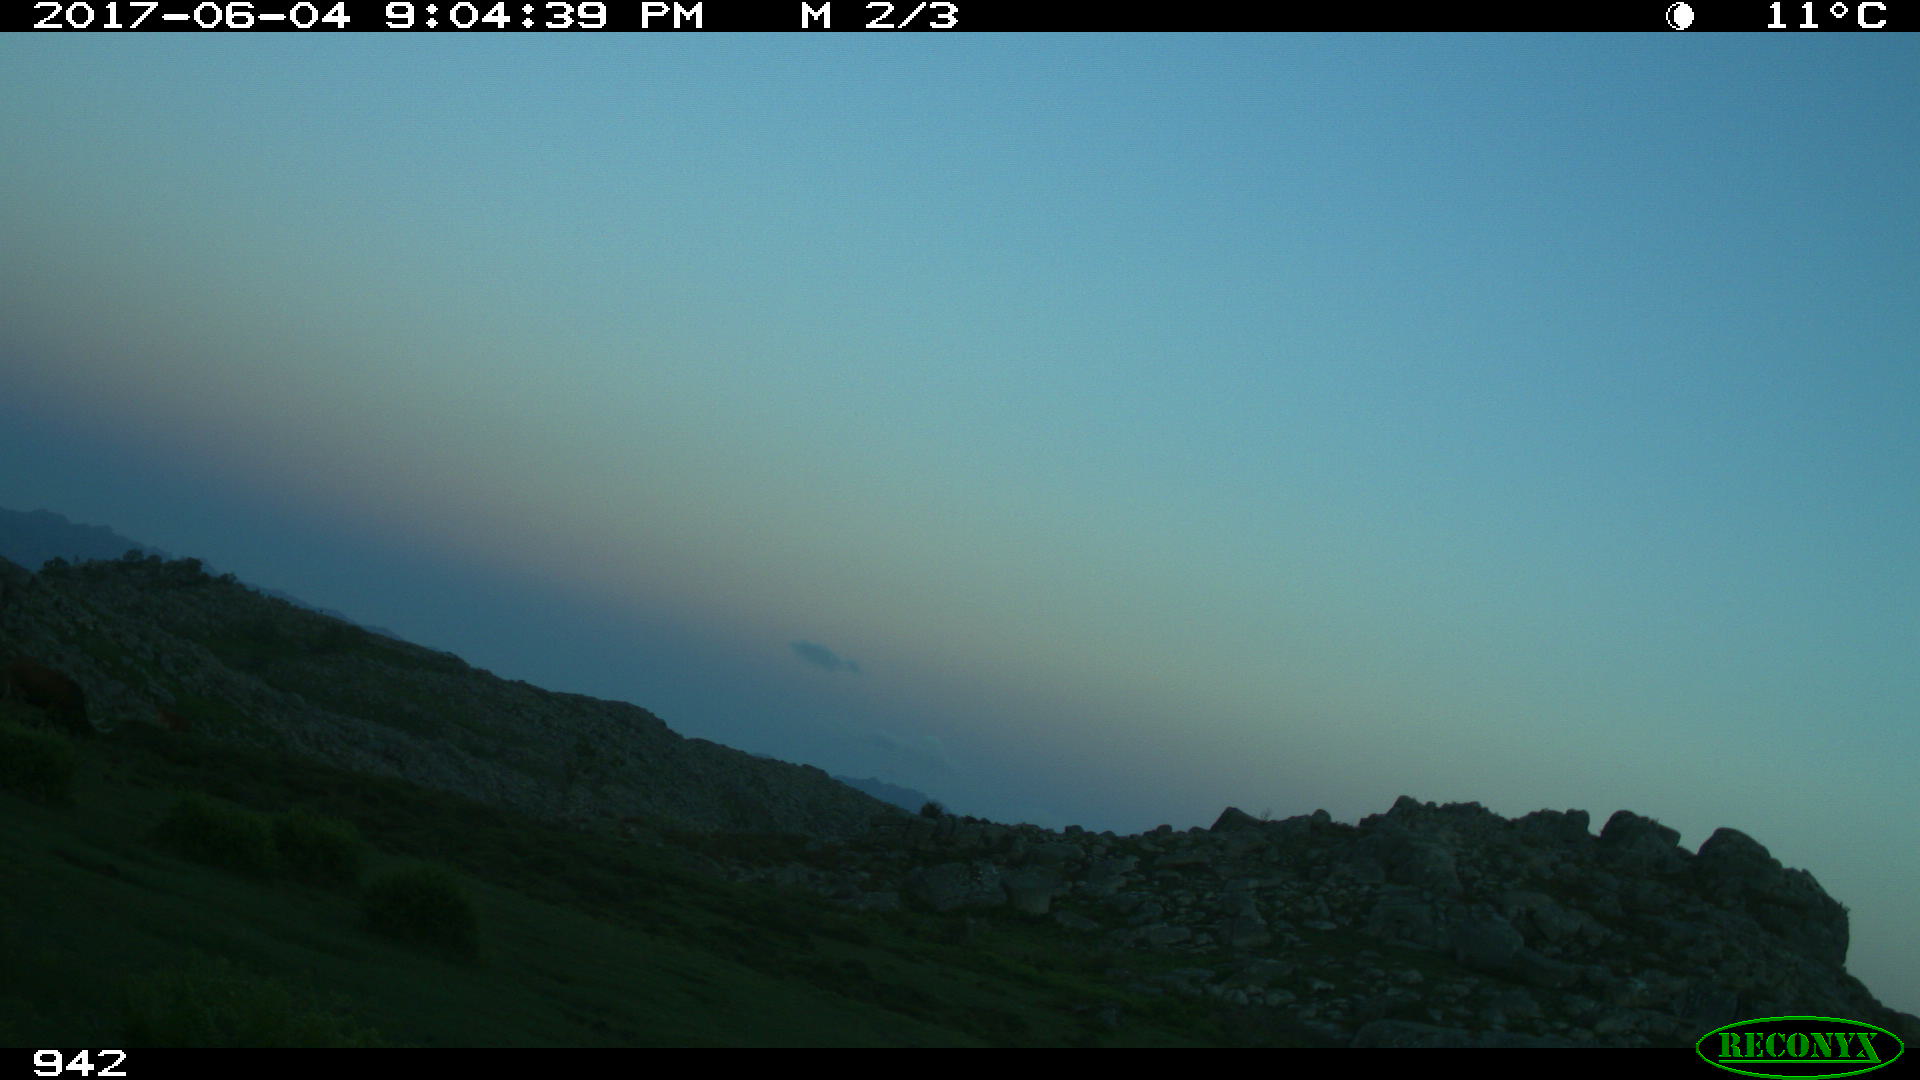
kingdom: Animalia
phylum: Chordata
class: Mammalia
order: Perissodactyla
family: Equidae
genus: Equus
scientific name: Equus caballus
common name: Horse
